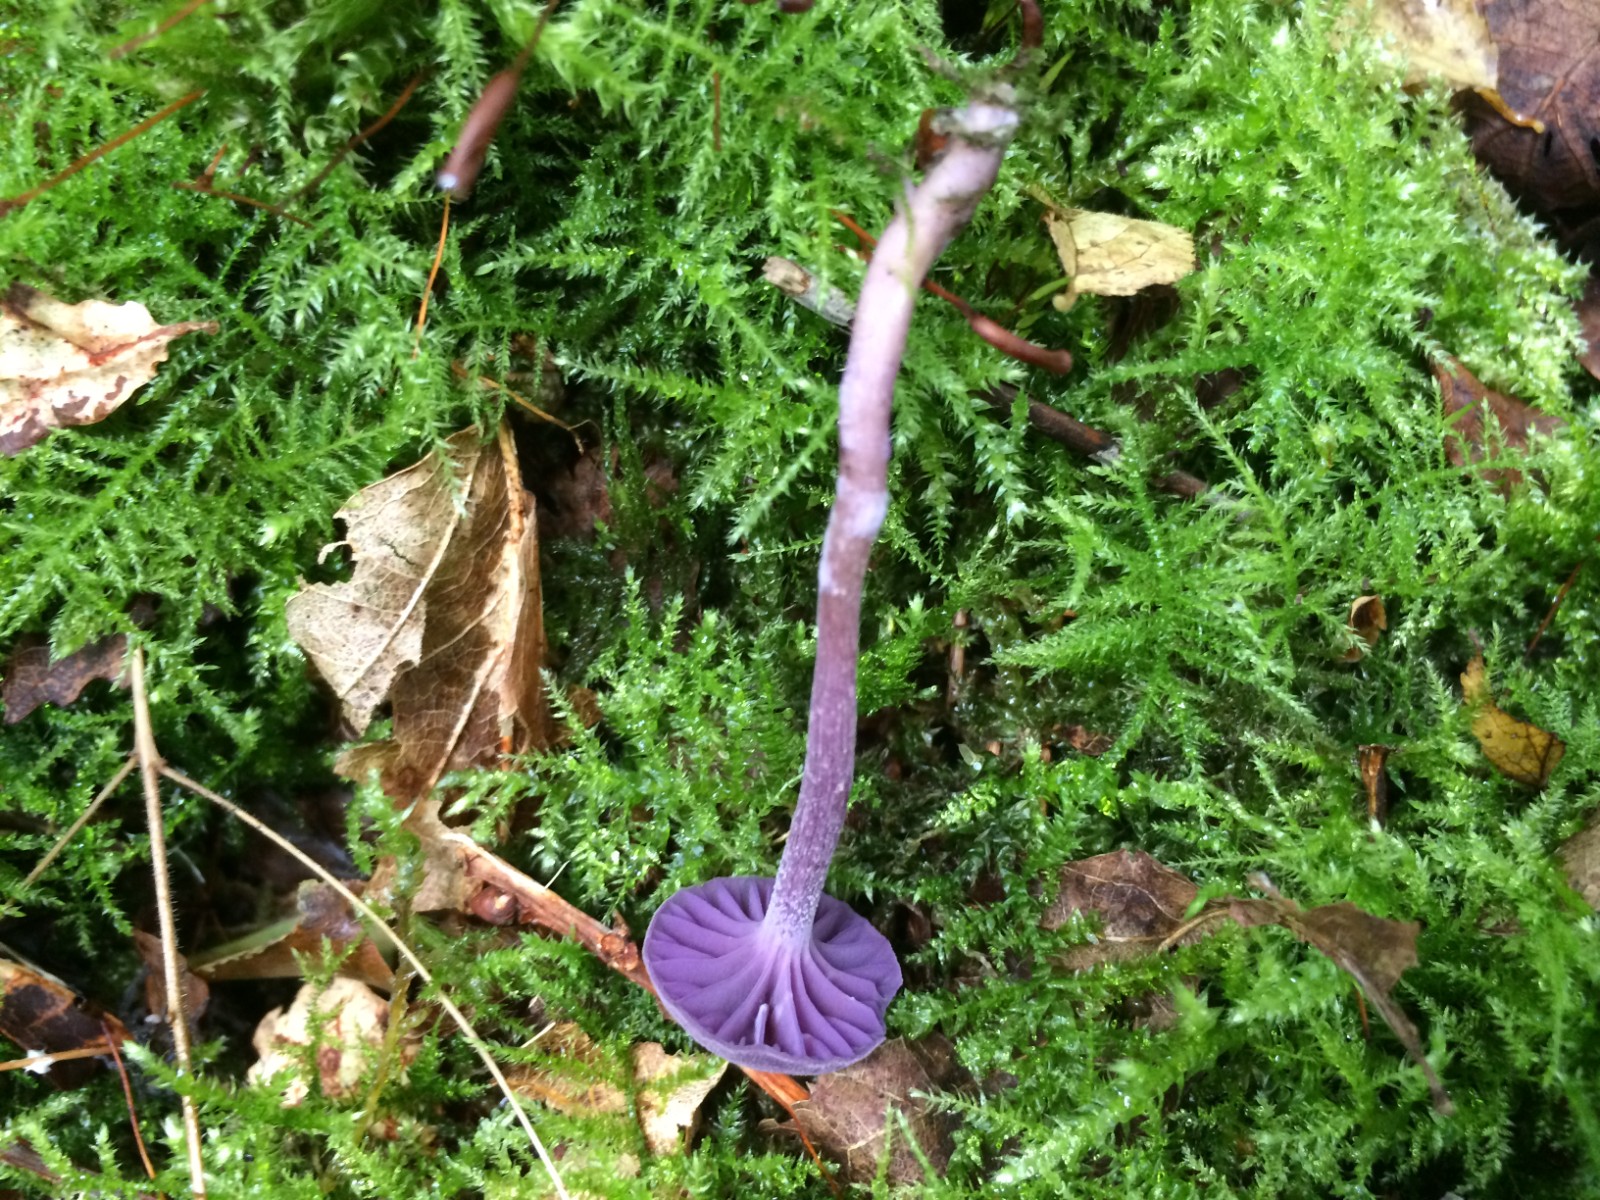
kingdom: Fungi
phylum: Basidiomycota
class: Agaricomycetes
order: Agaricales
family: Hydnangiaceae
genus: Laccaria
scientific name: Laccaria amethystina
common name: violet ametysthat
